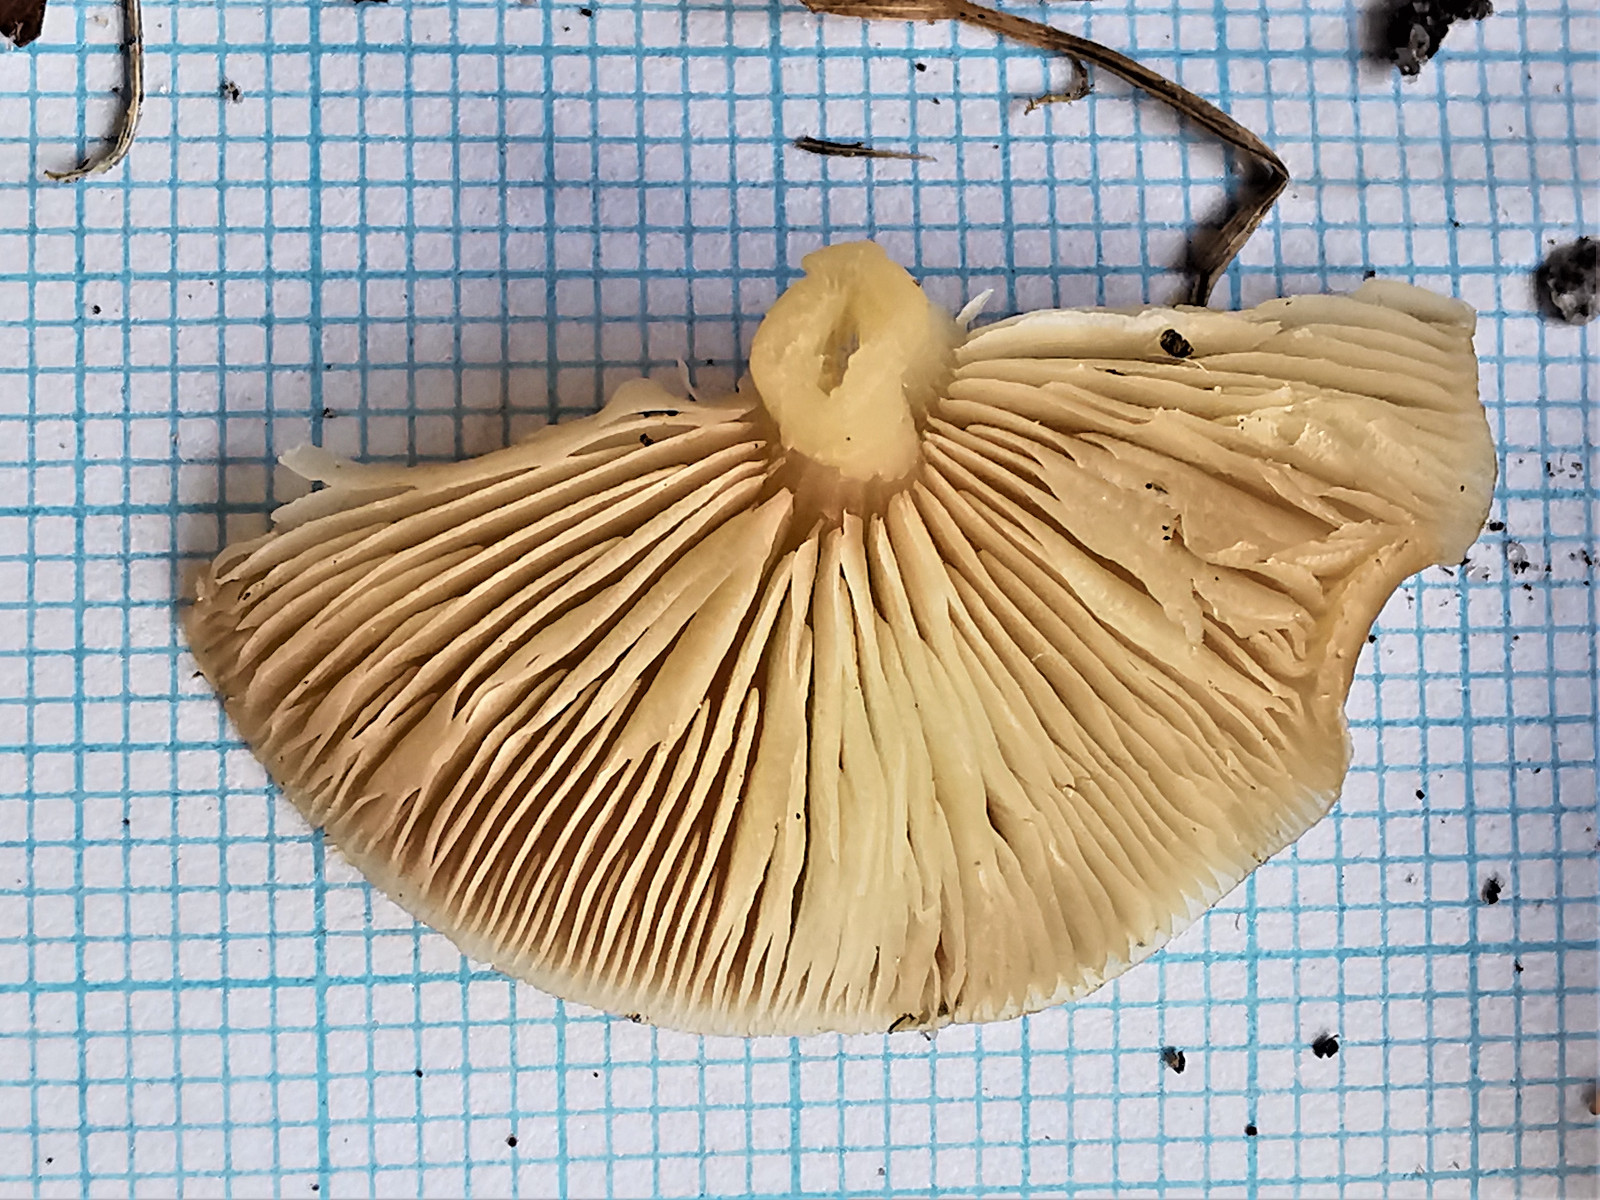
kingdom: Fungi
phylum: Basidiomycota
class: Agaricomycetes
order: Agaricales
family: Omphalotaceae
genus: Gymnopus
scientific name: Gymnopus ocior
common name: mørk fladhat
